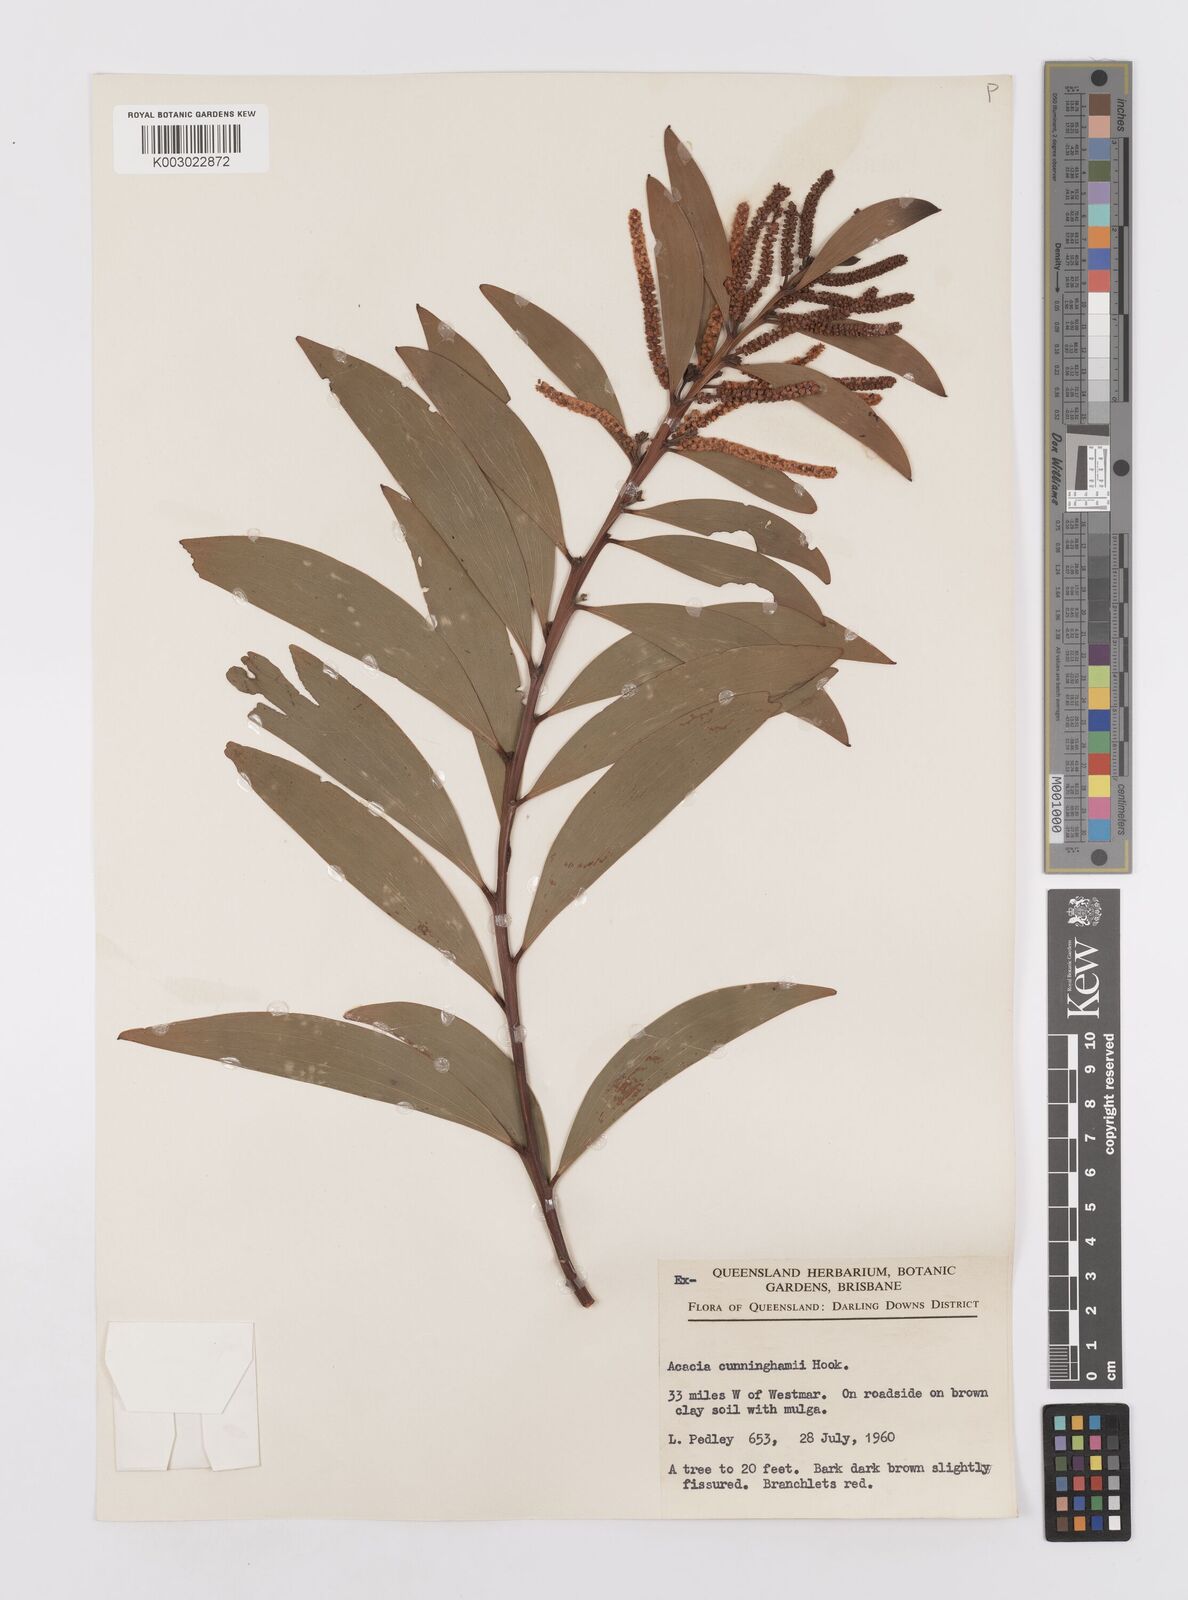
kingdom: Plantae
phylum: Tracheophyta
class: Magnoliopsida
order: Fabales
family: Fabaceae
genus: Acacia
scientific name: Acacia longispicata
